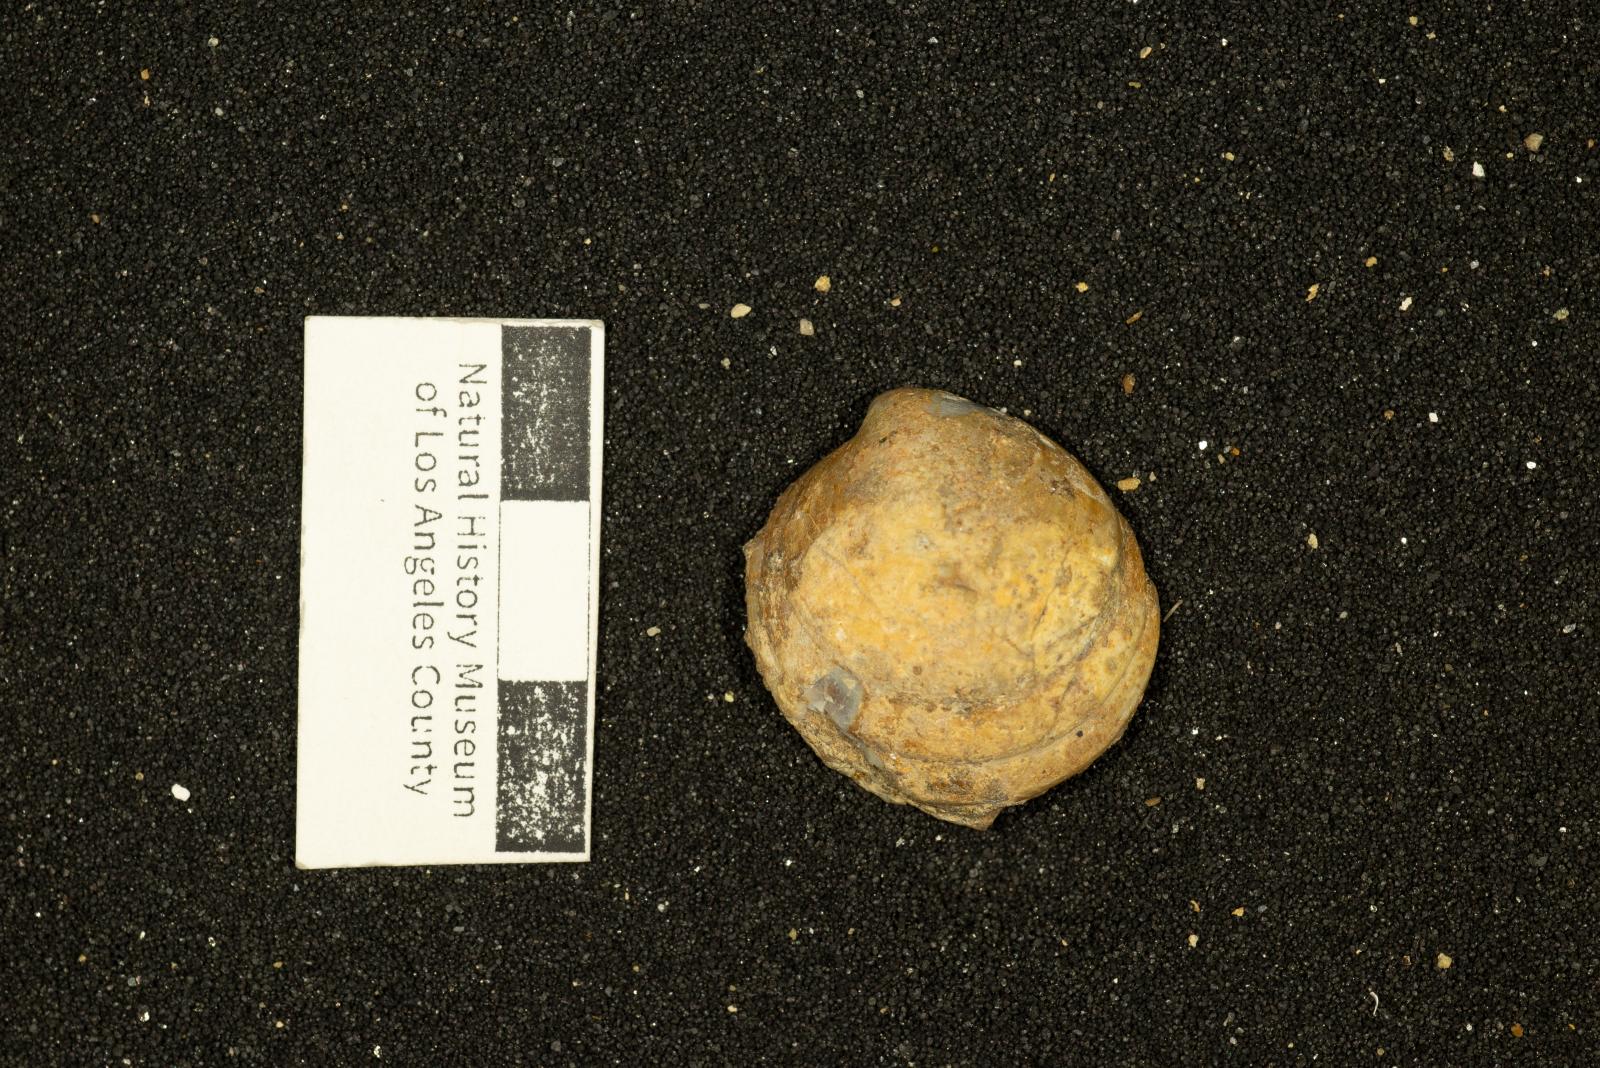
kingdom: Animalia
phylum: Mollusca
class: Bivalvia
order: Venerida
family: Veneridae
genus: Dosinia
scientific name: Dosinia lupinus
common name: Smooth artemis
